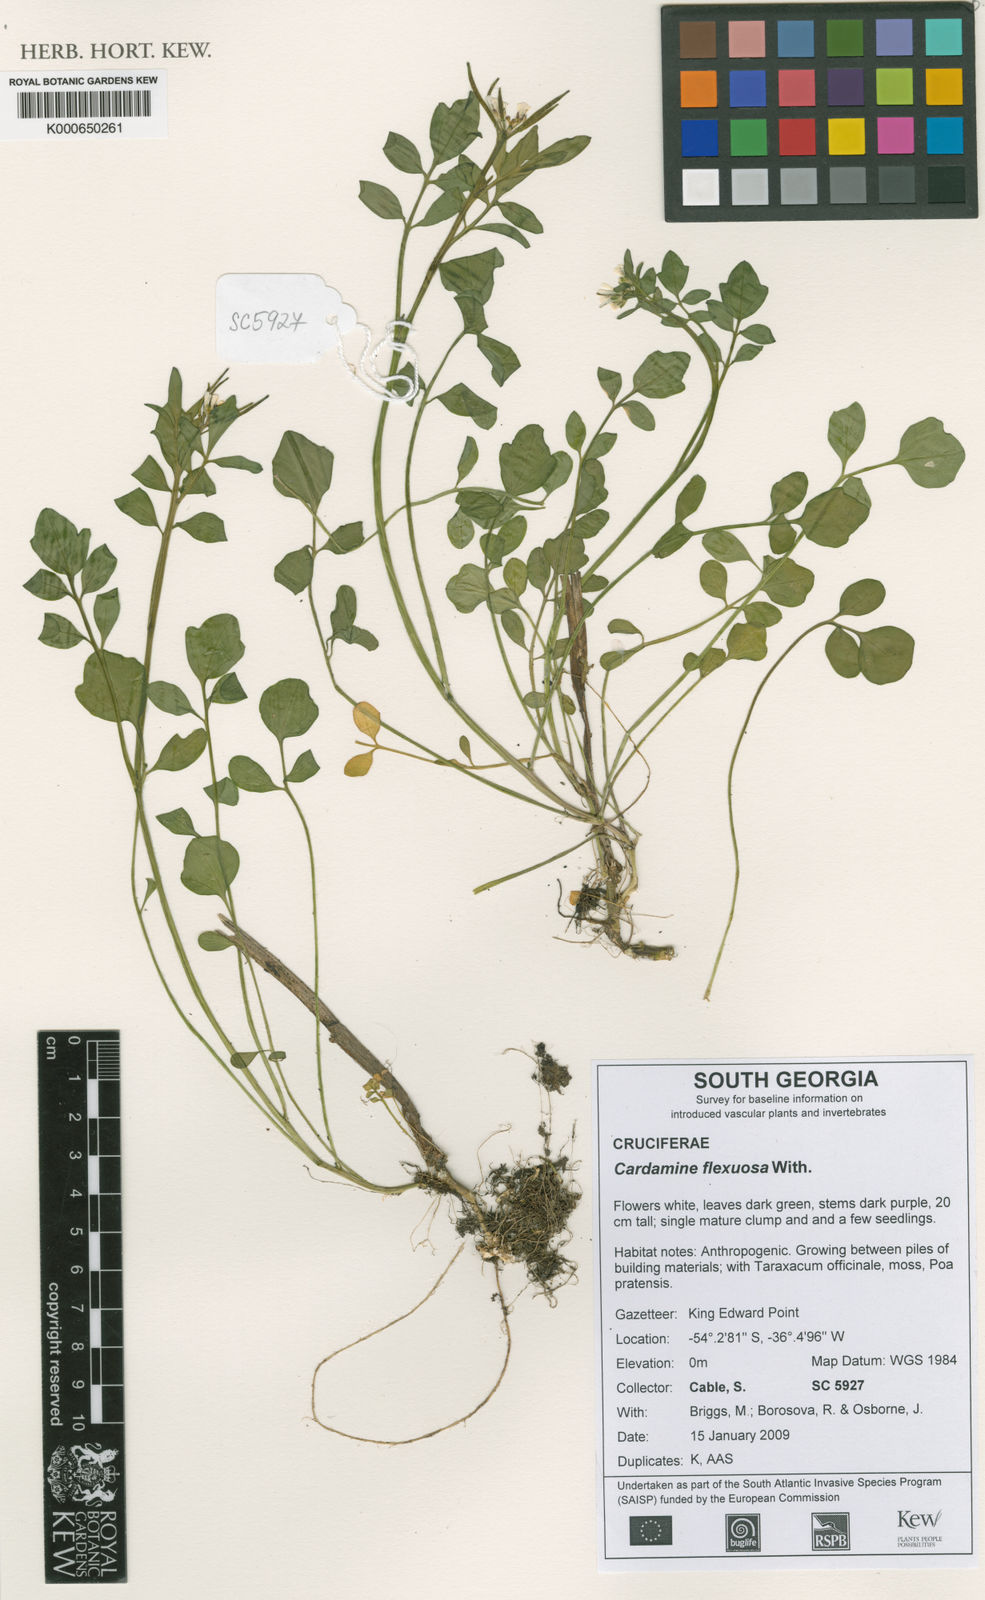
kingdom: Plantae
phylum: Tracheophyta
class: Magnoliopsida
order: Brassicales
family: Brassicaceae
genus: Cardamine
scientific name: Cardamine glacialis
